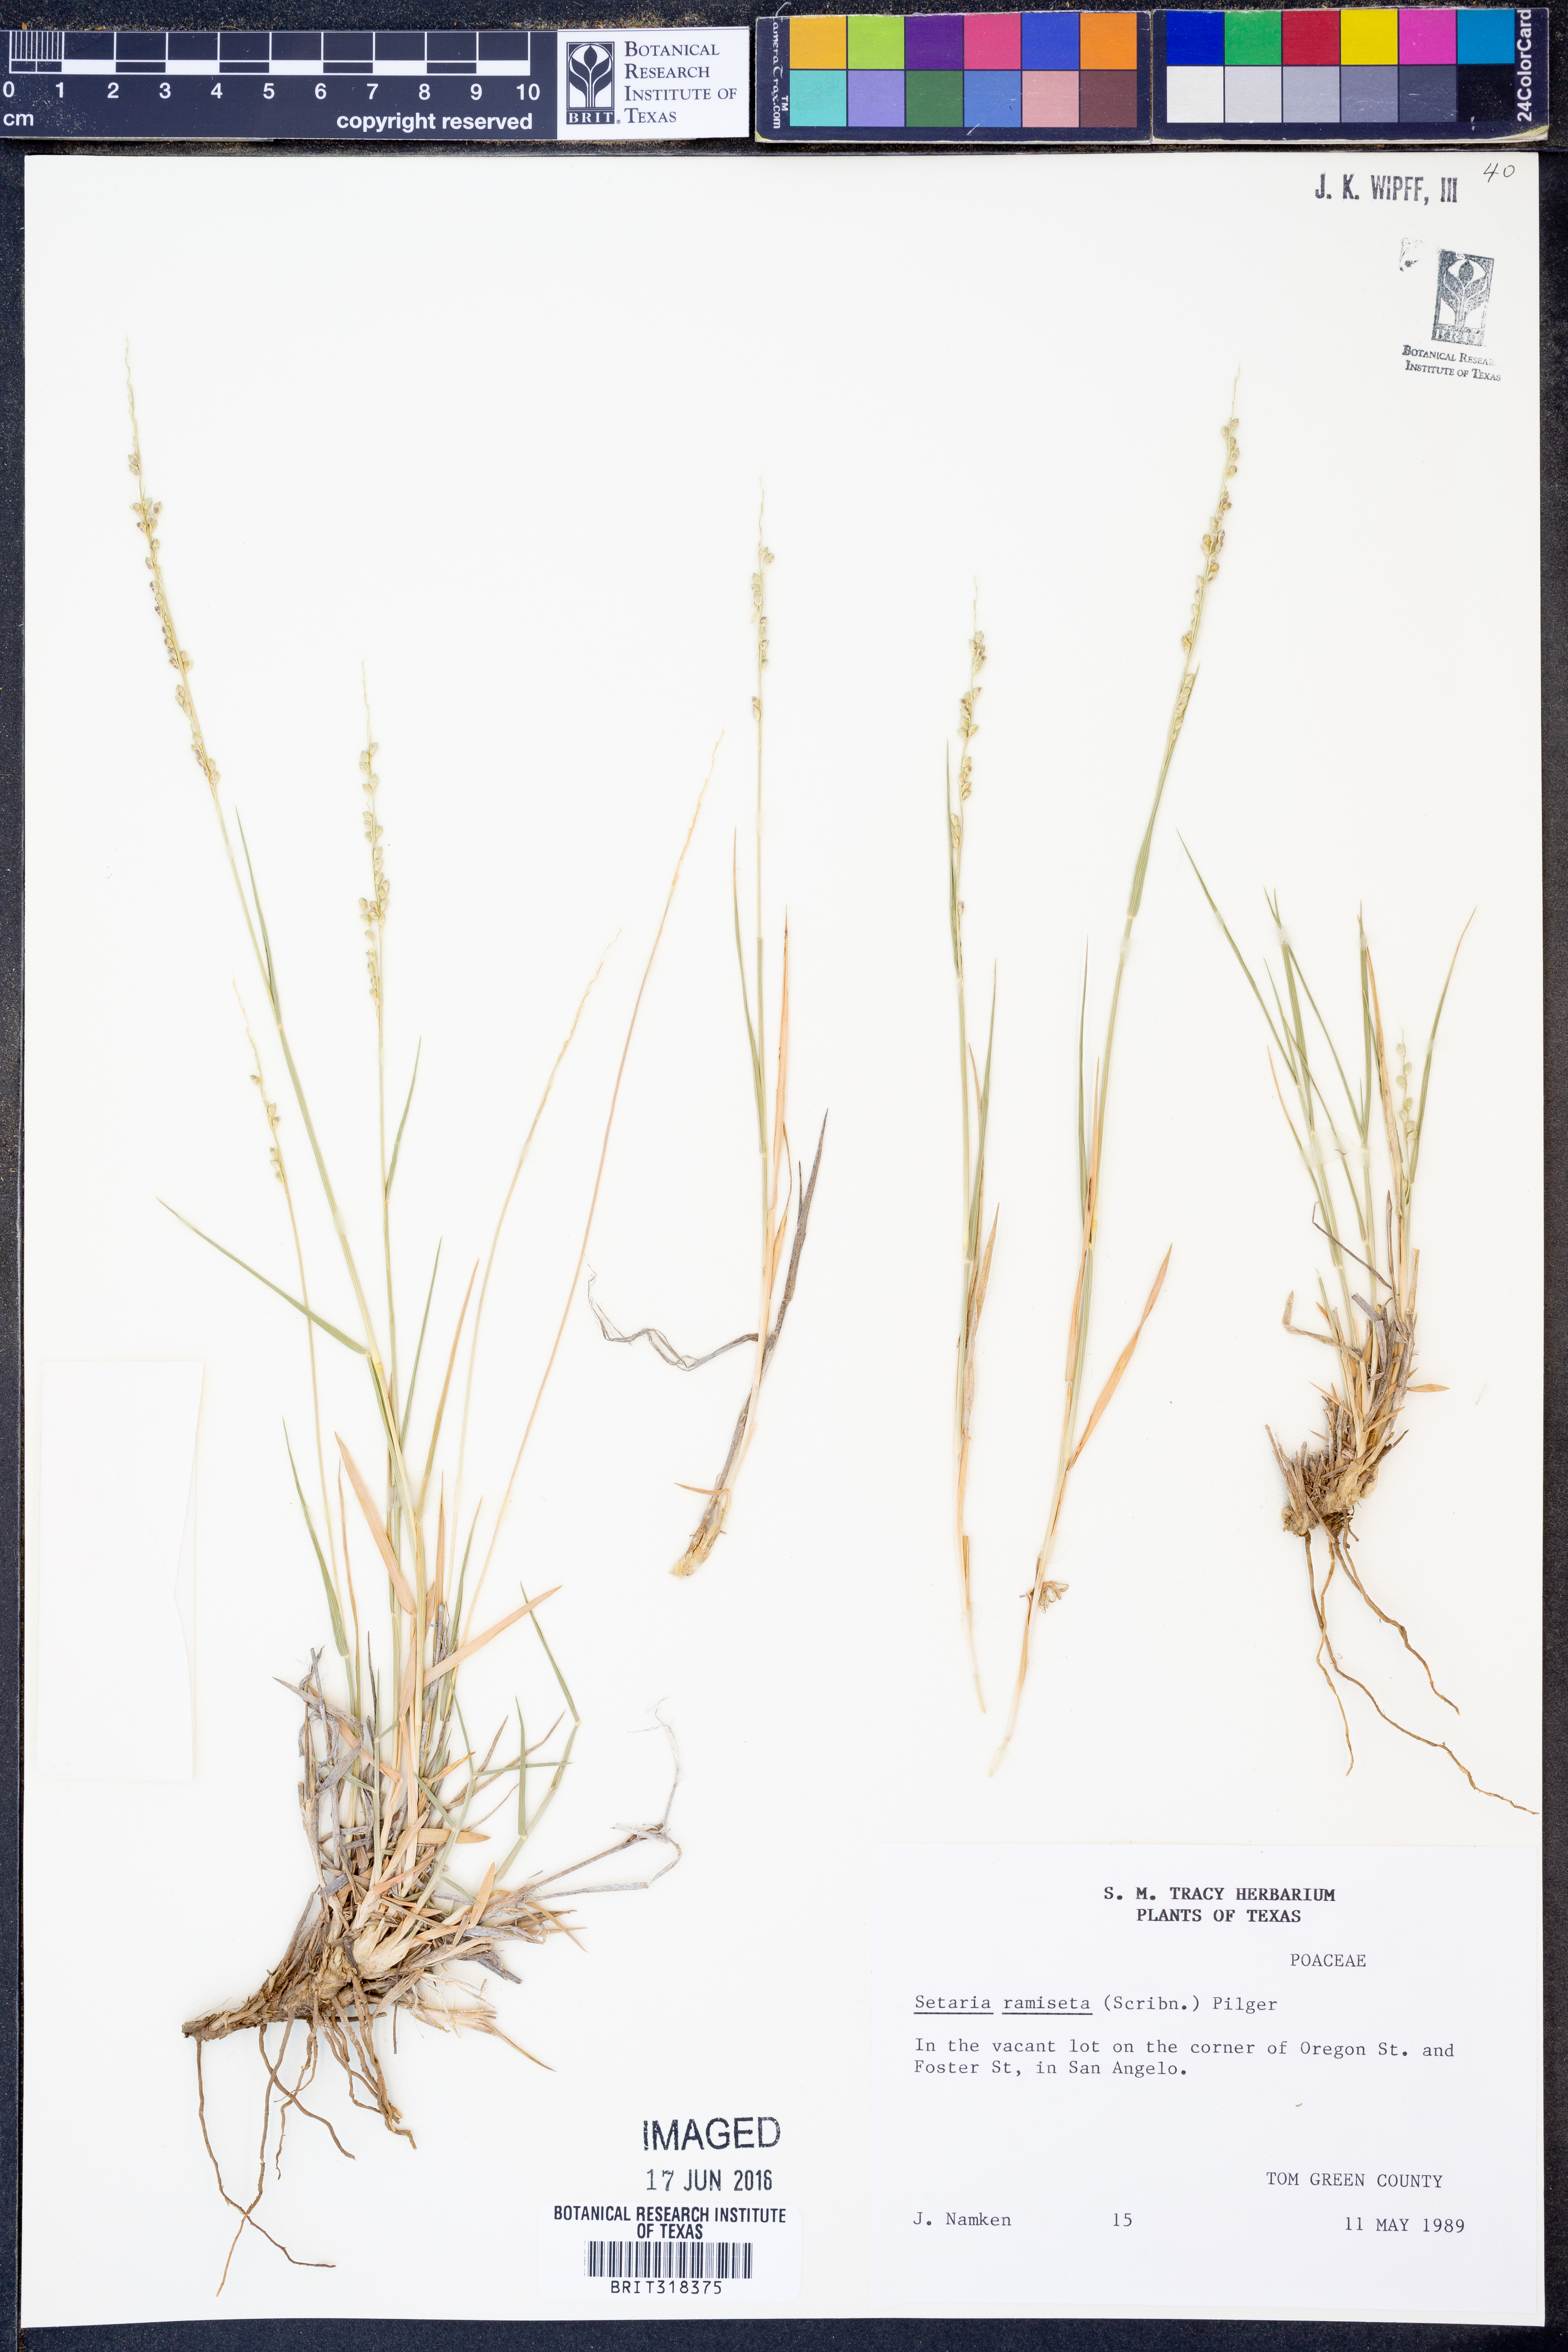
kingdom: Plantae
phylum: Tracheophyta
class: Liliopsida
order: Poales
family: Poaceae
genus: Setaria
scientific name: Setaria reverchonii
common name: Reverchon's bristle grass
